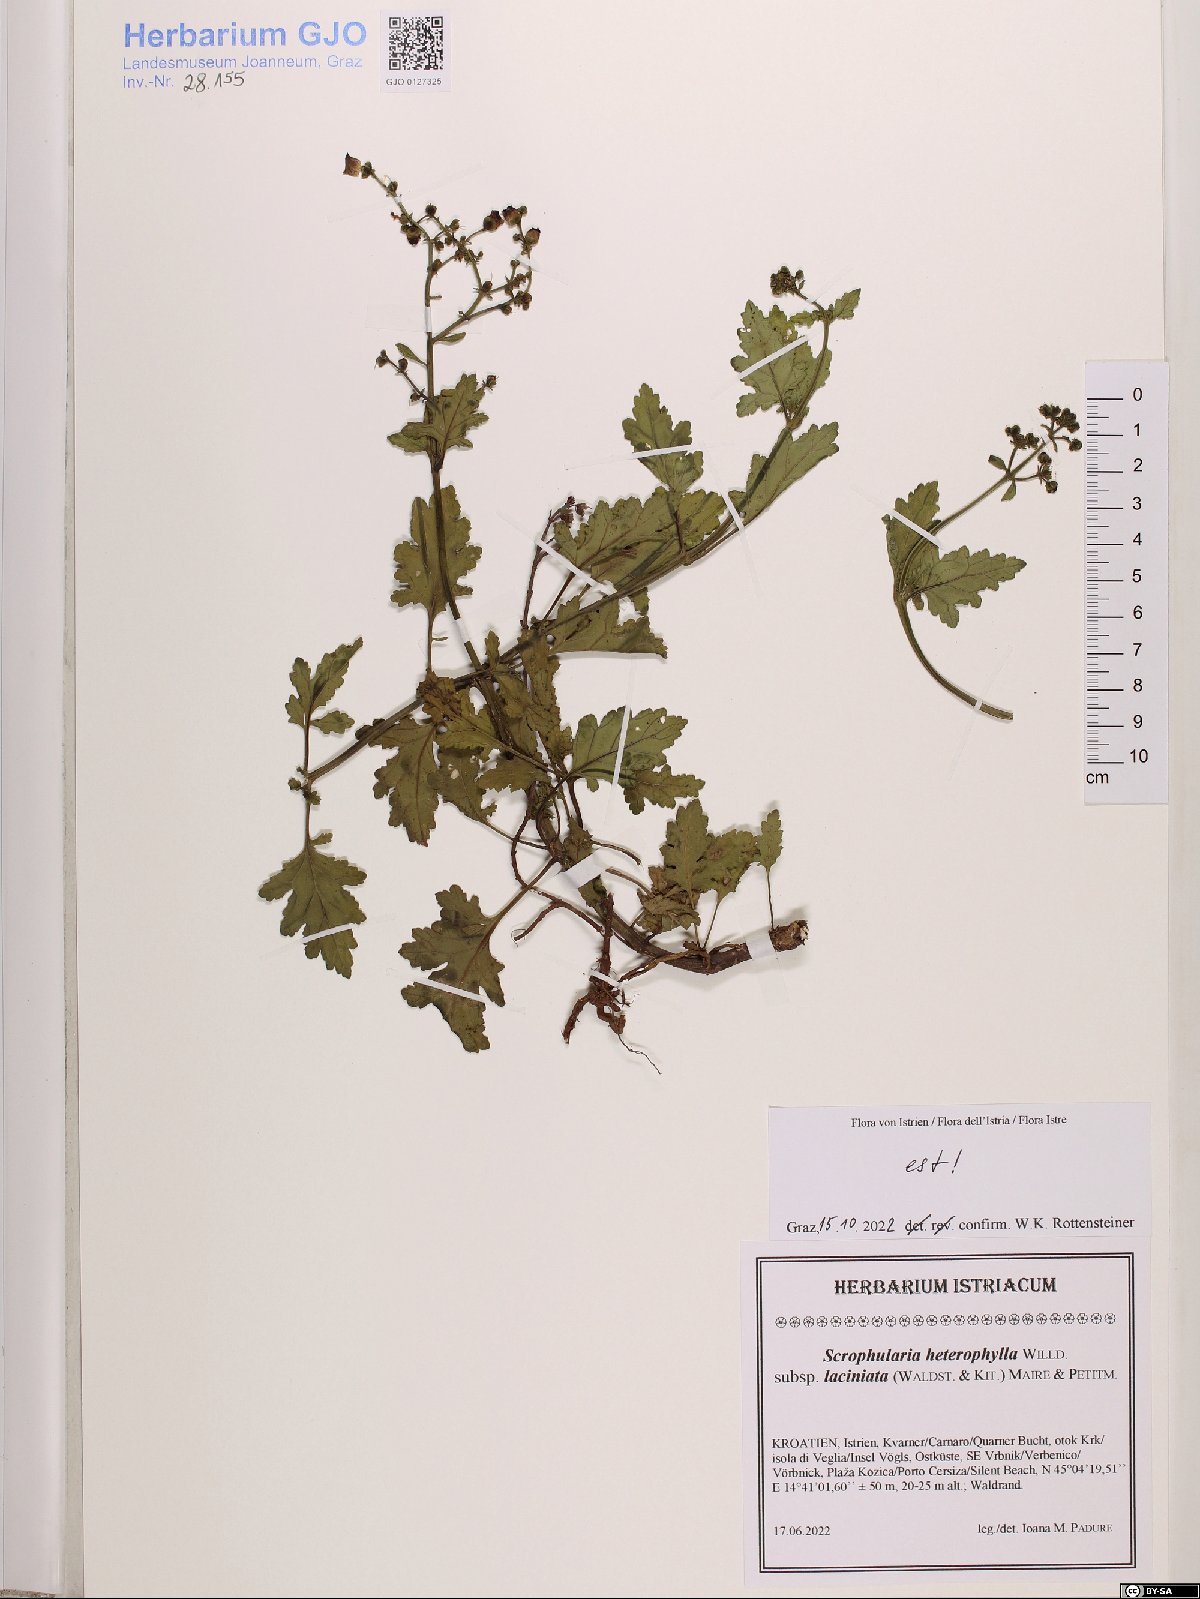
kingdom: Plantae
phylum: Tracheophyta
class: Magnoliopsida
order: Lamiales
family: Scrophulariaceae
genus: Scrophularia
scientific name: Scrophularia laciniata
